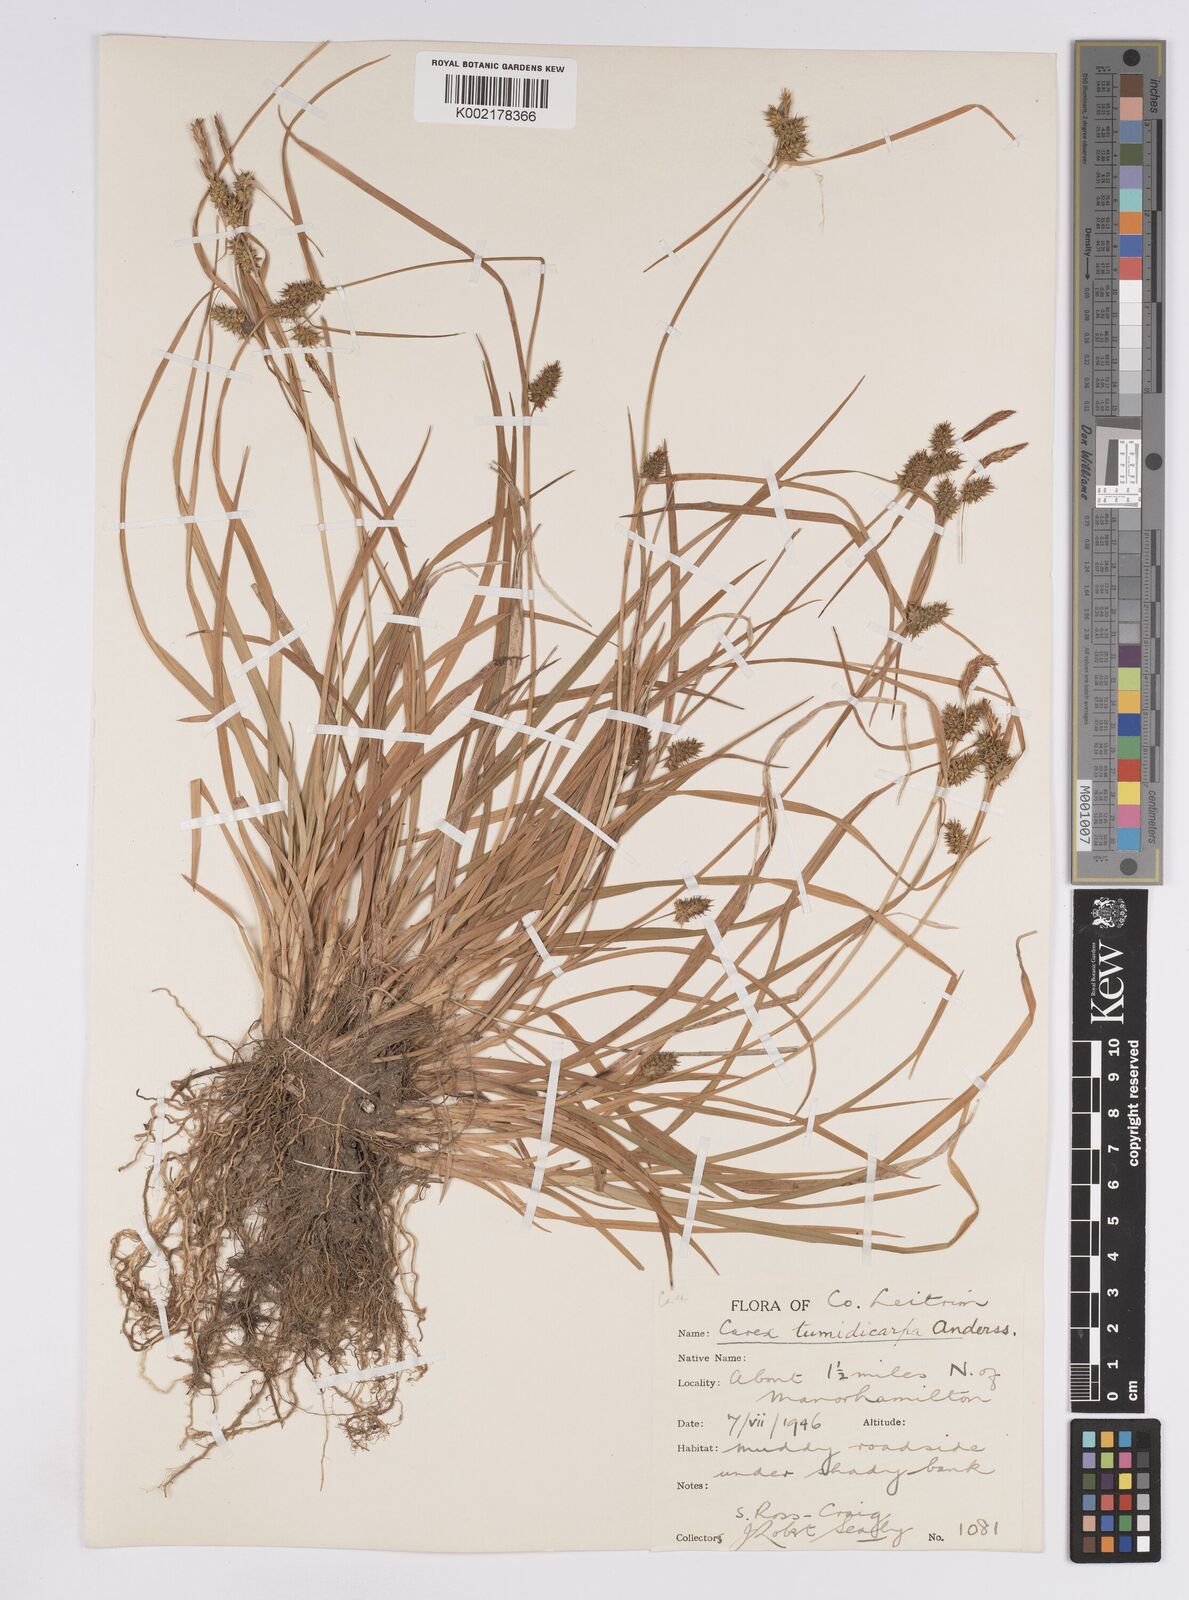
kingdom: Plantae
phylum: Tracheophyta
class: Liliopsida
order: Poales
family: Cyperaceae
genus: Carex
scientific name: Carex demissa
